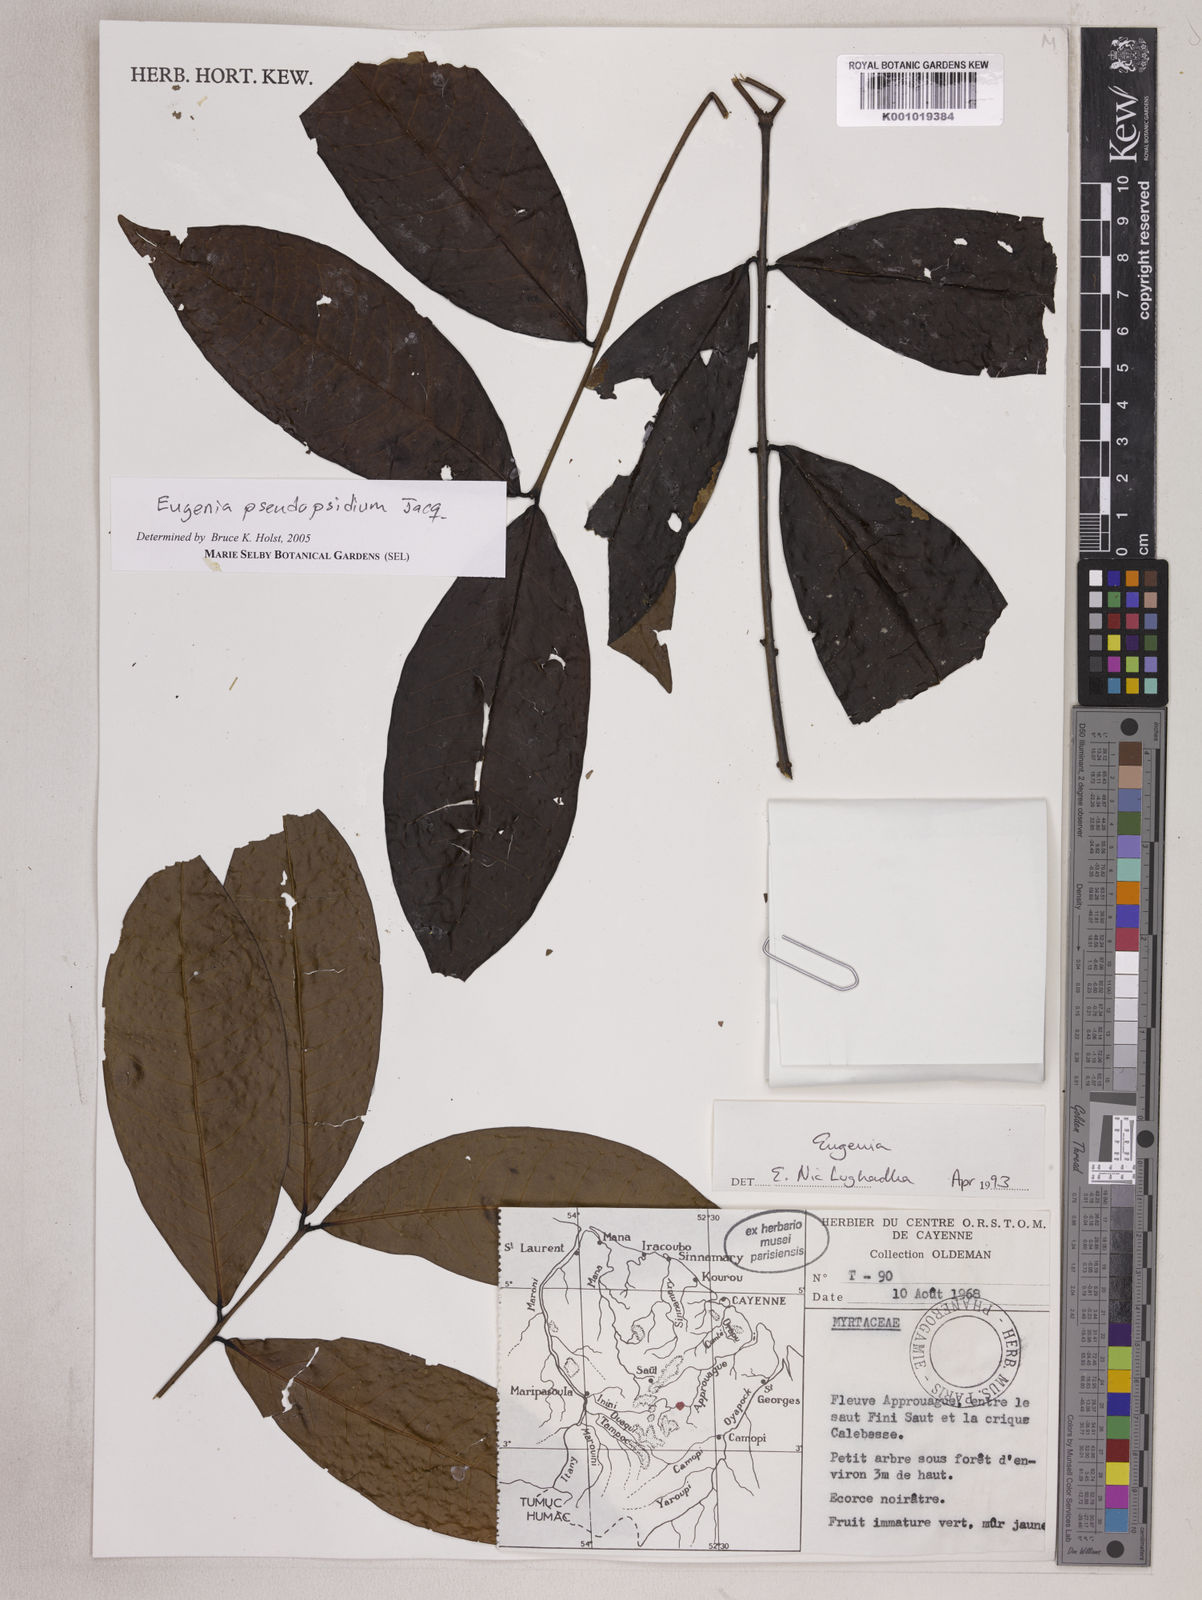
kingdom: Plantae
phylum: Tracheophyta
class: Magnoliopsida
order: Myrtales
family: Myrtaceae
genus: Eugenia
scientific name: Eugenia pseudopsidium
